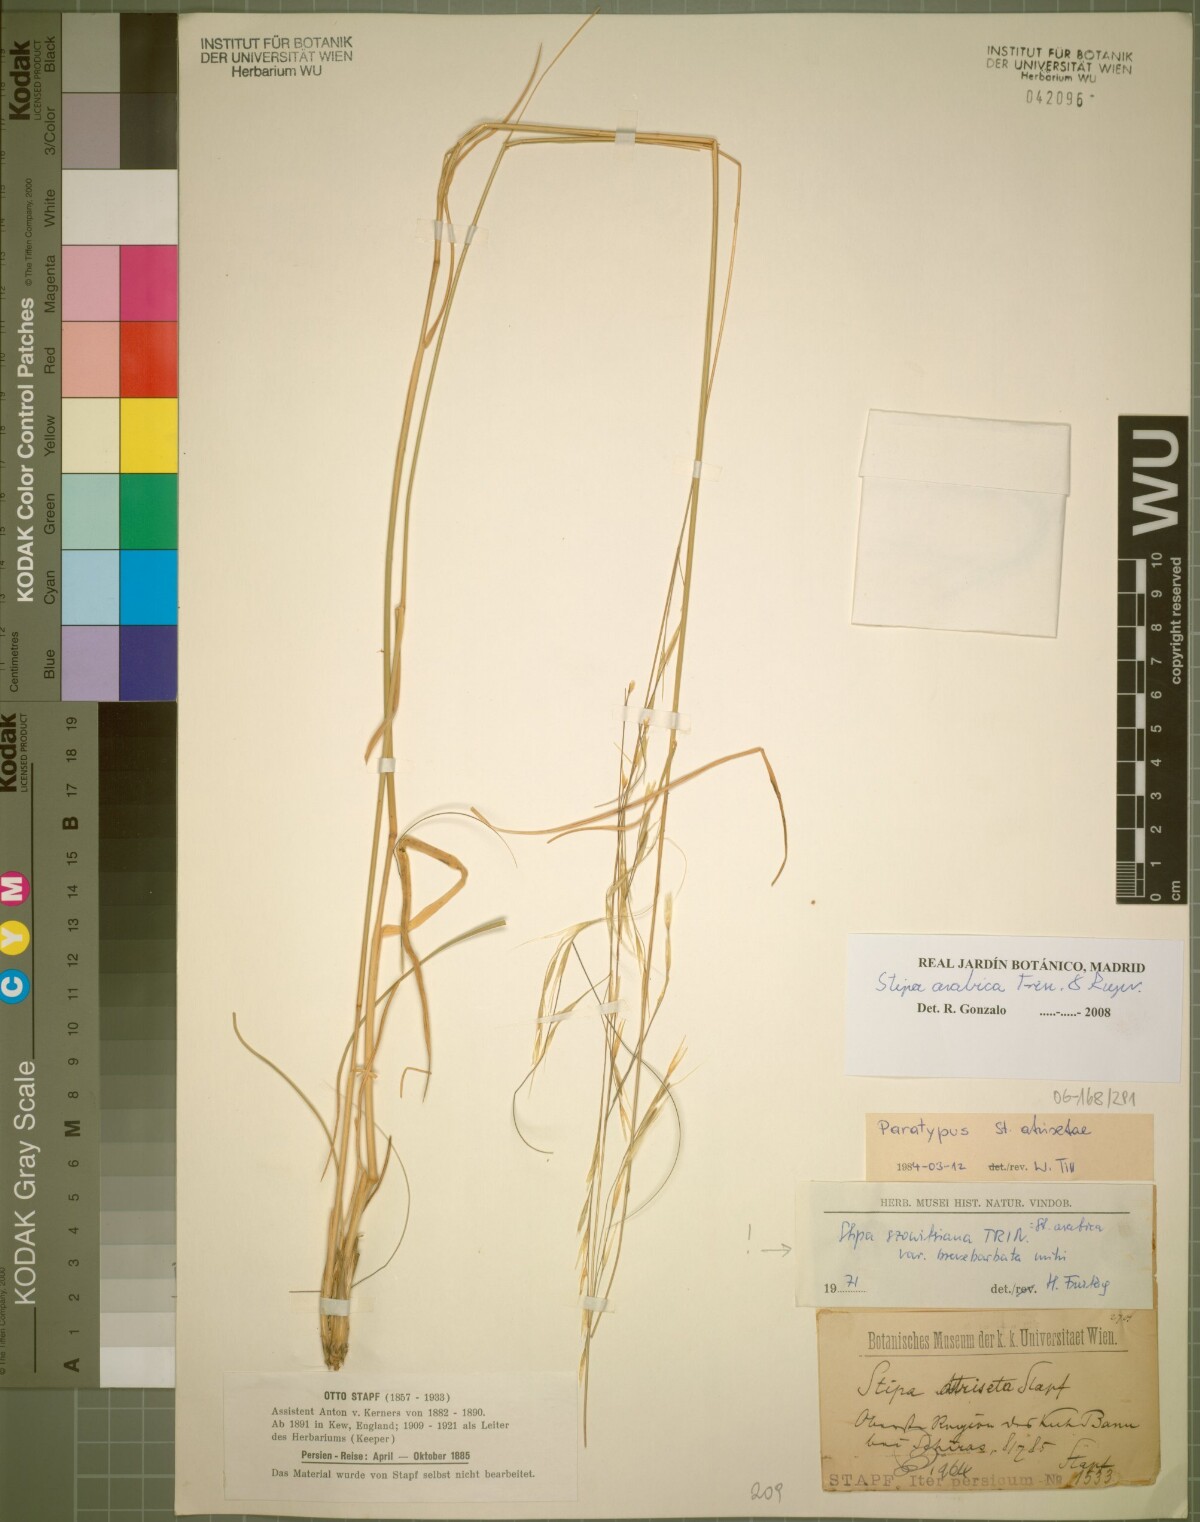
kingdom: Plantae
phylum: Tracheophyta
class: Liliopsida
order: Poales
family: Poaceae
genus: Stipa
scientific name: Stipa hohenackeriana
